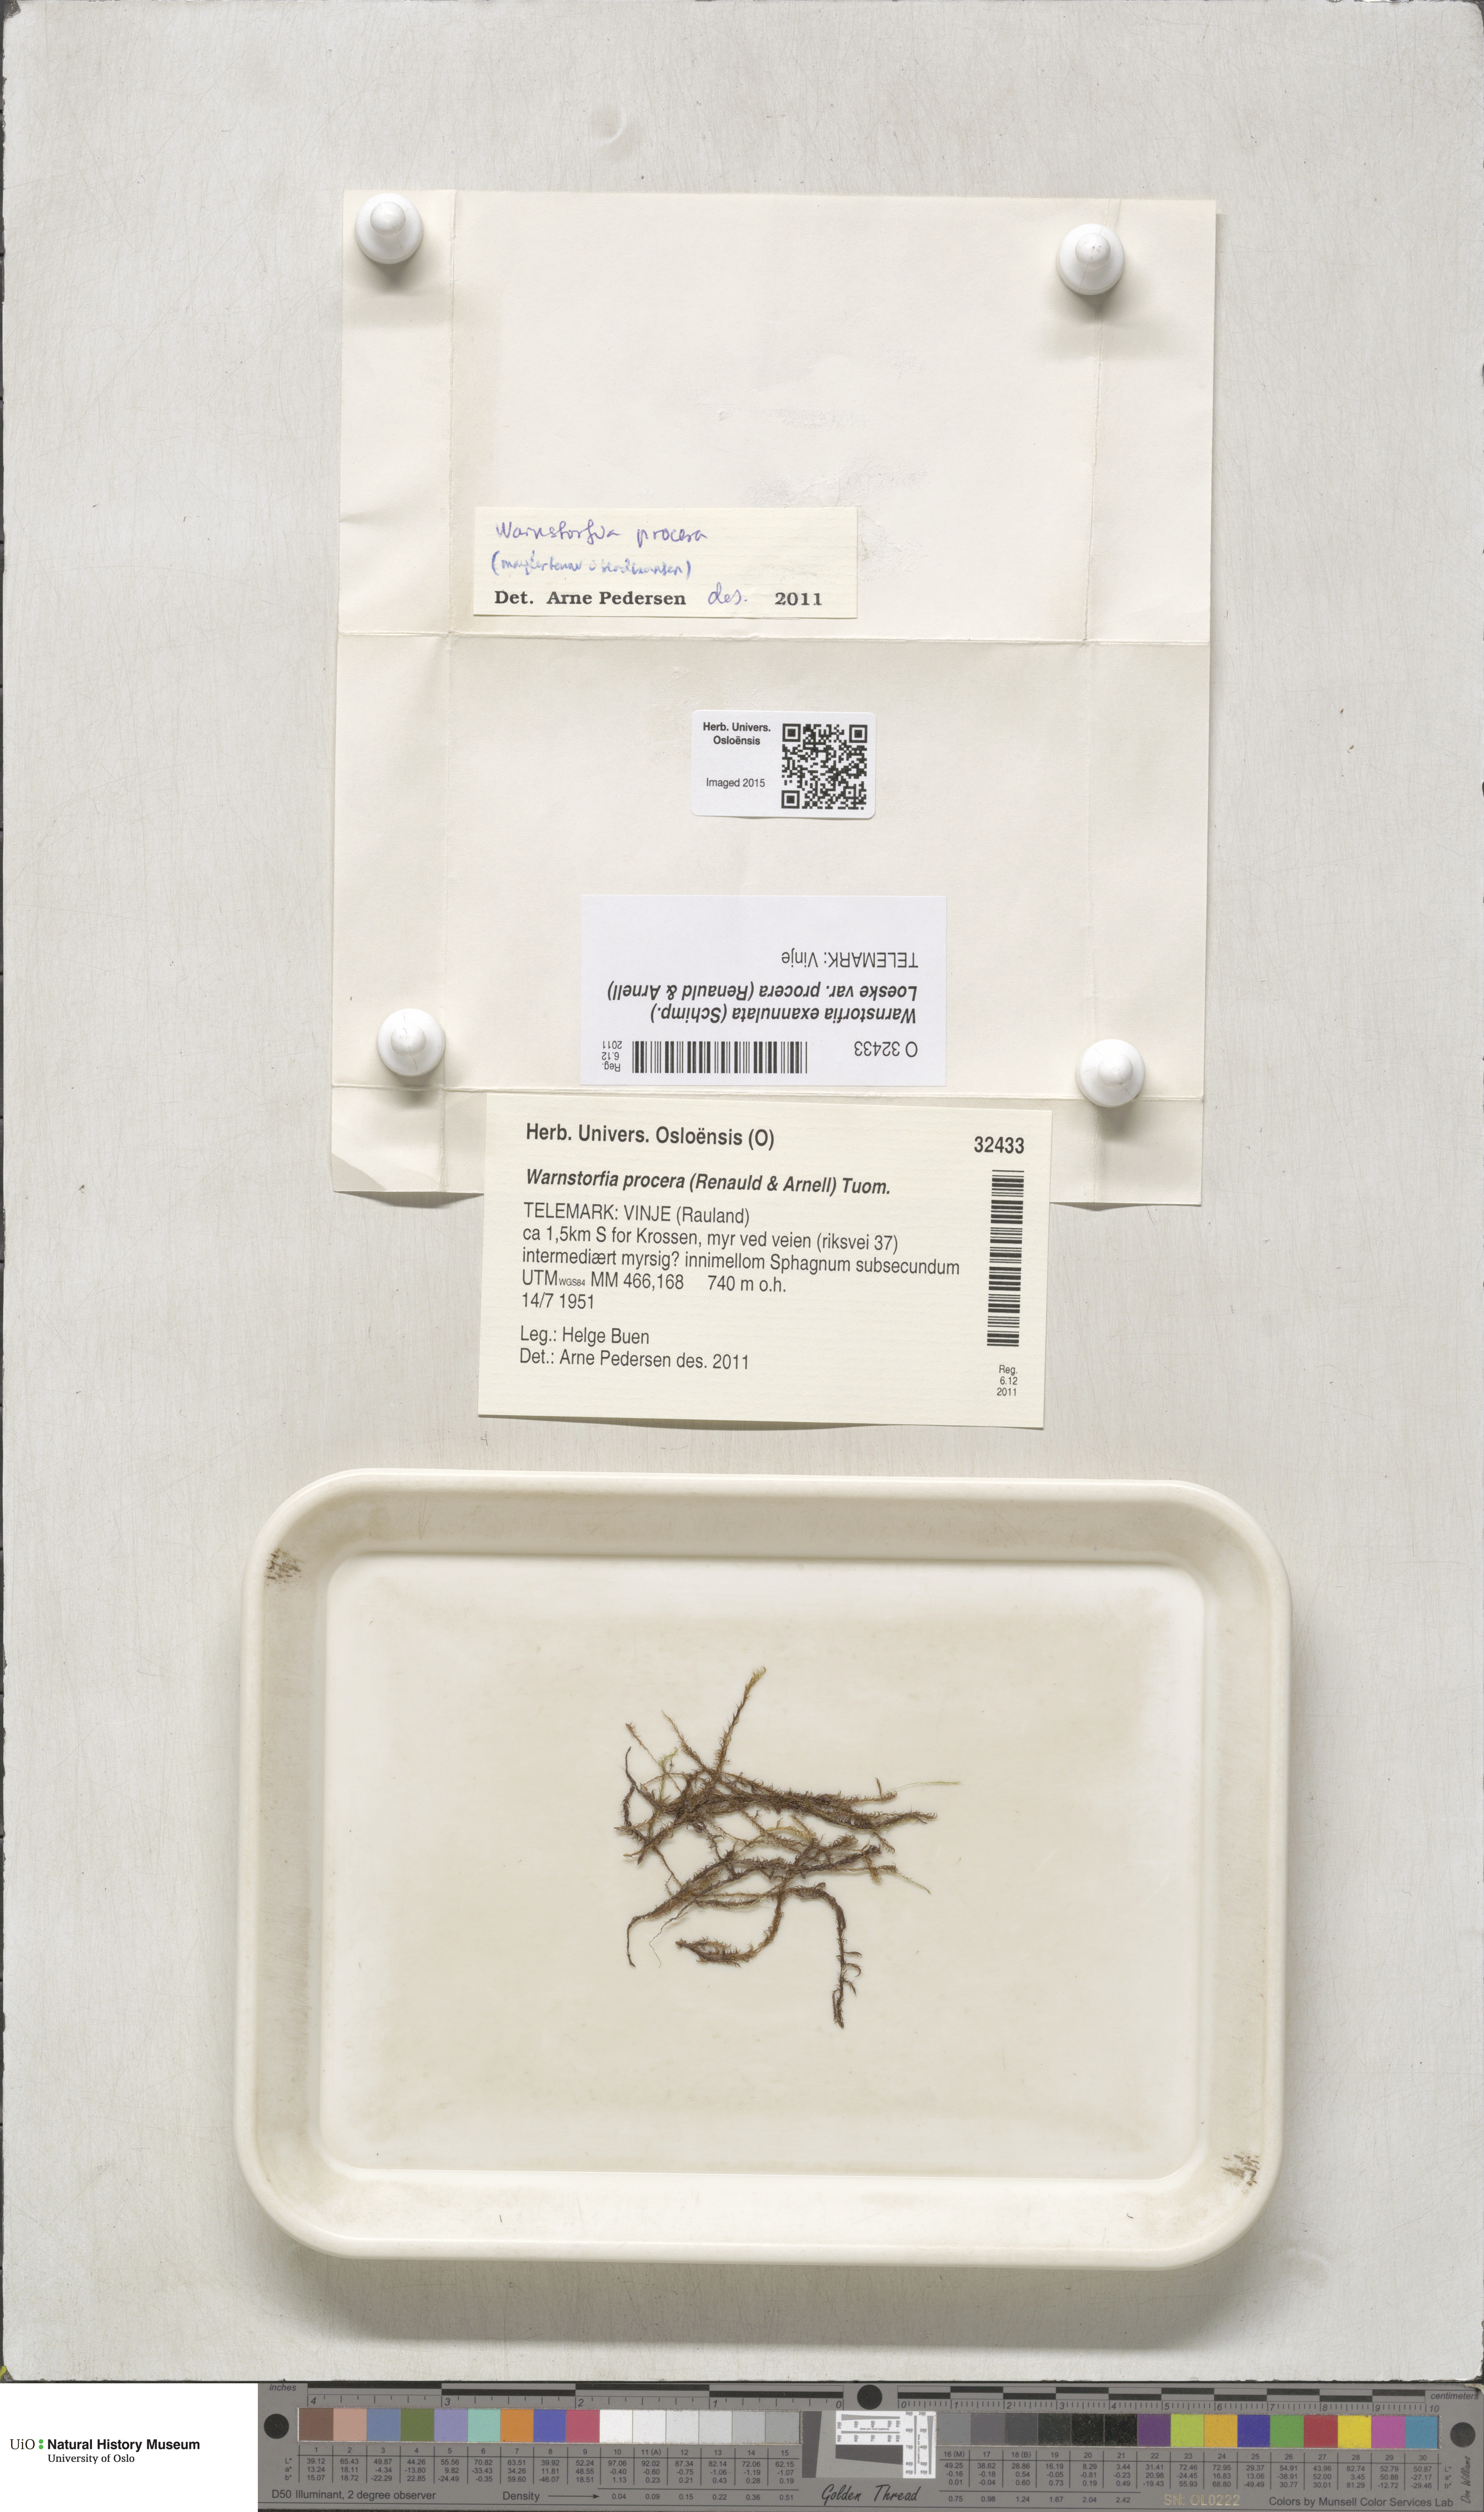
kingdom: Plantae
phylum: Bryophyta
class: Bryopsida
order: Hypnales
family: Calliergonaceae
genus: Sarmentypnum
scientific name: Sarmentypnum procerum
